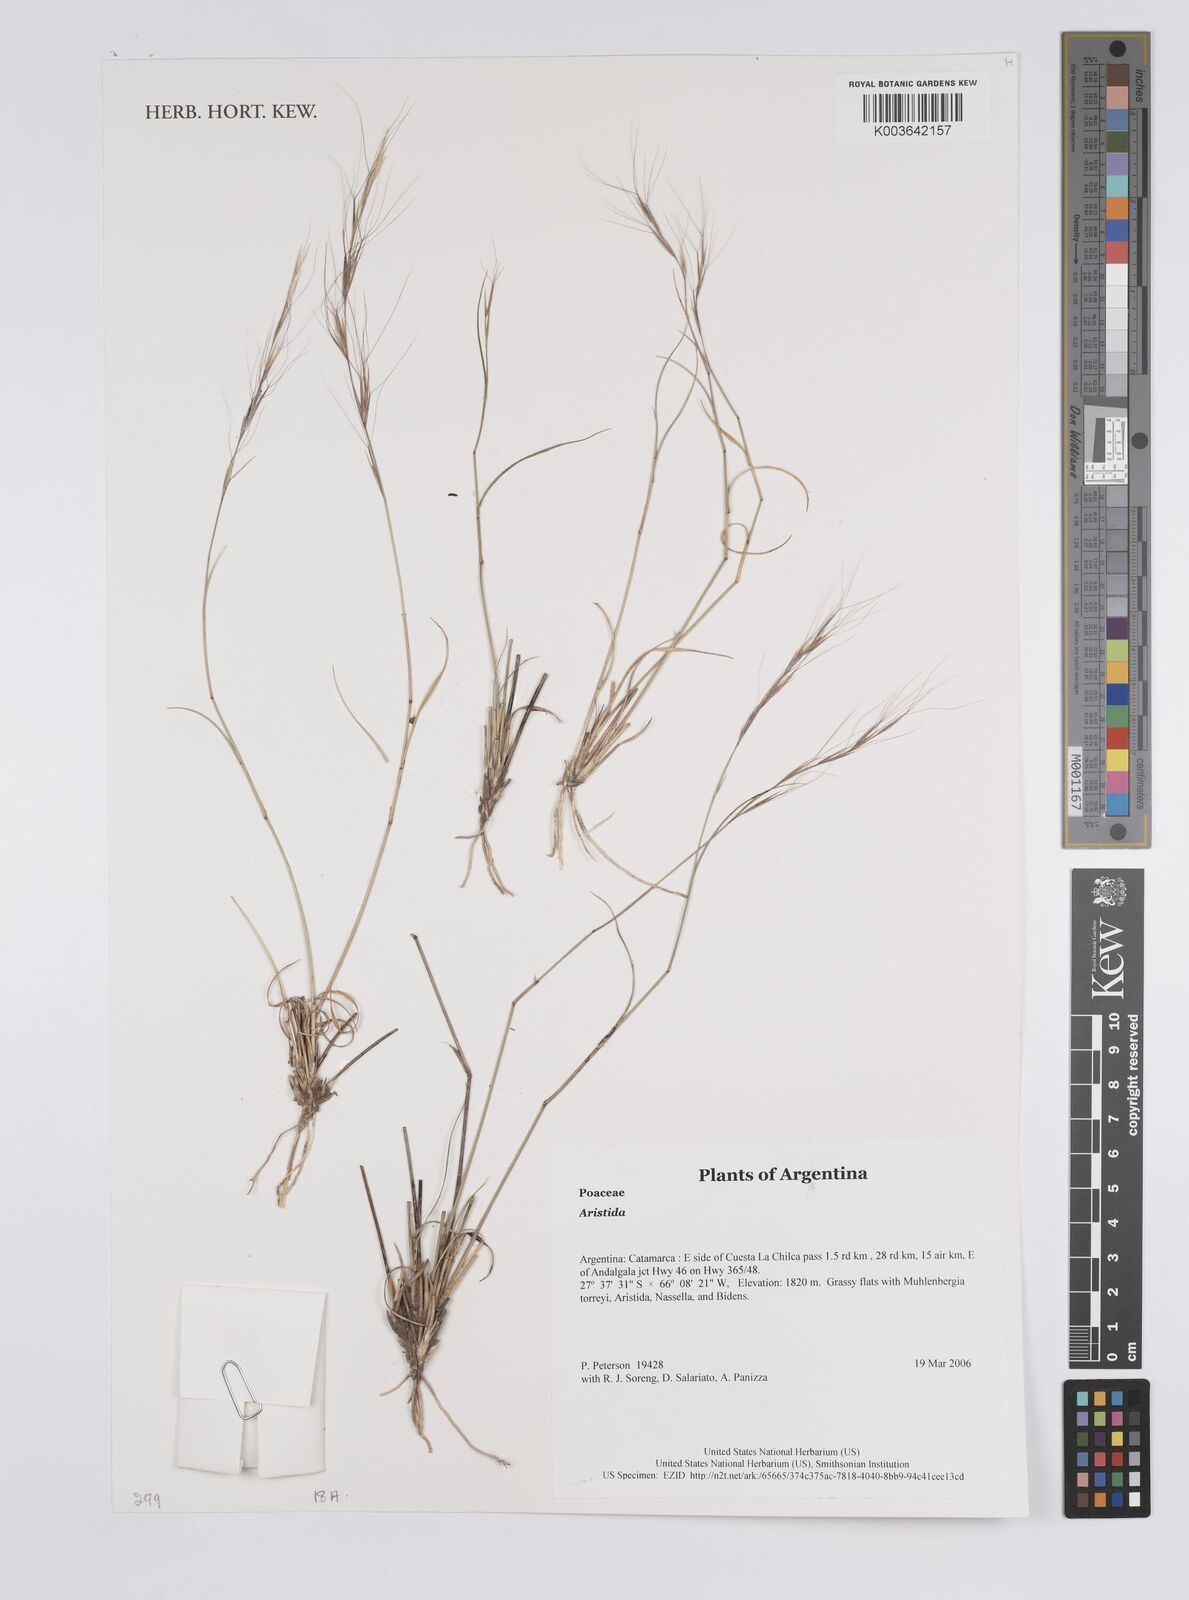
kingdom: Plantae
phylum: Tracheophyta
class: Liliopsida
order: Poales
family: Poaceae
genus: Aristida
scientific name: Aristida
